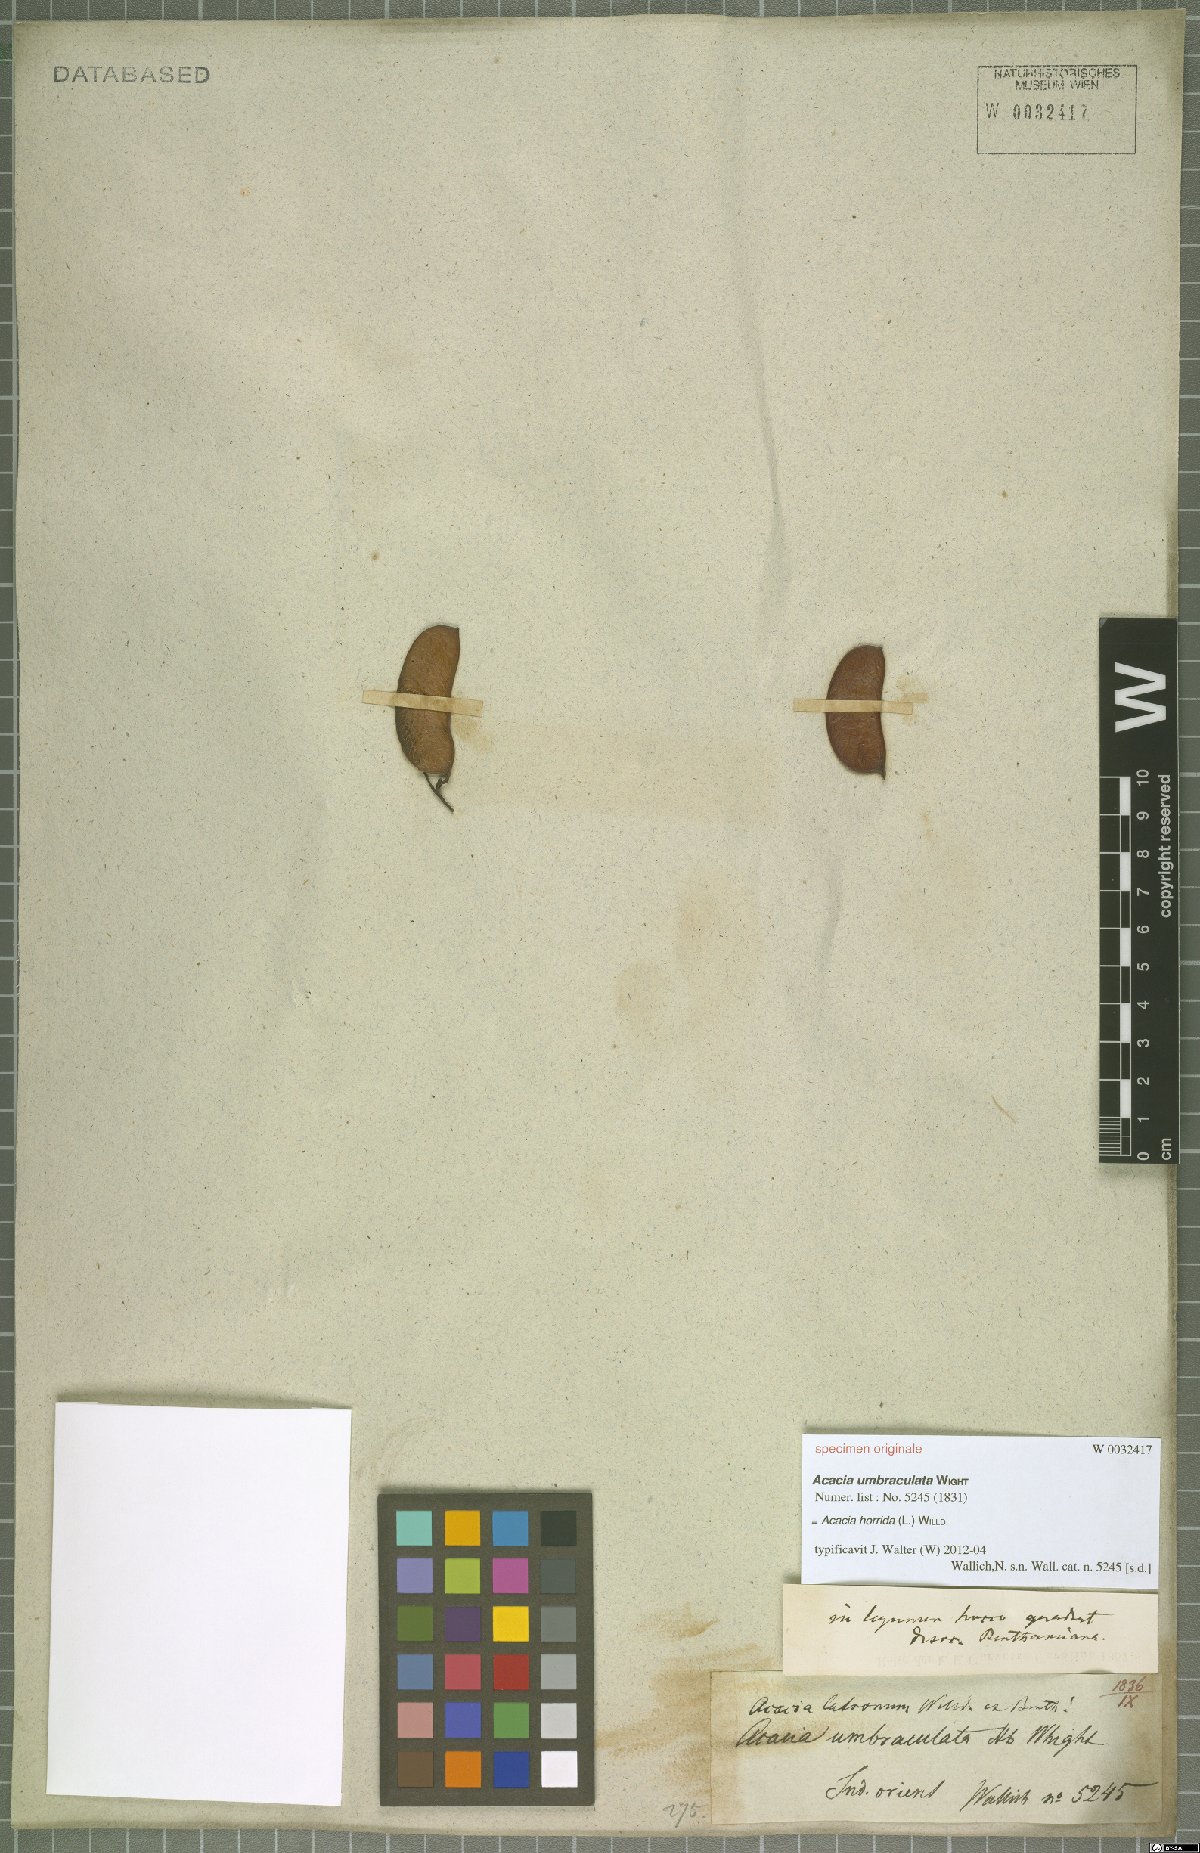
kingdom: Plantae
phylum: Tracheophyta
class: Magnoliopsida
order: Fabales
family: Fabaceae
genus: Vachellia
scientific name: Vachellia
